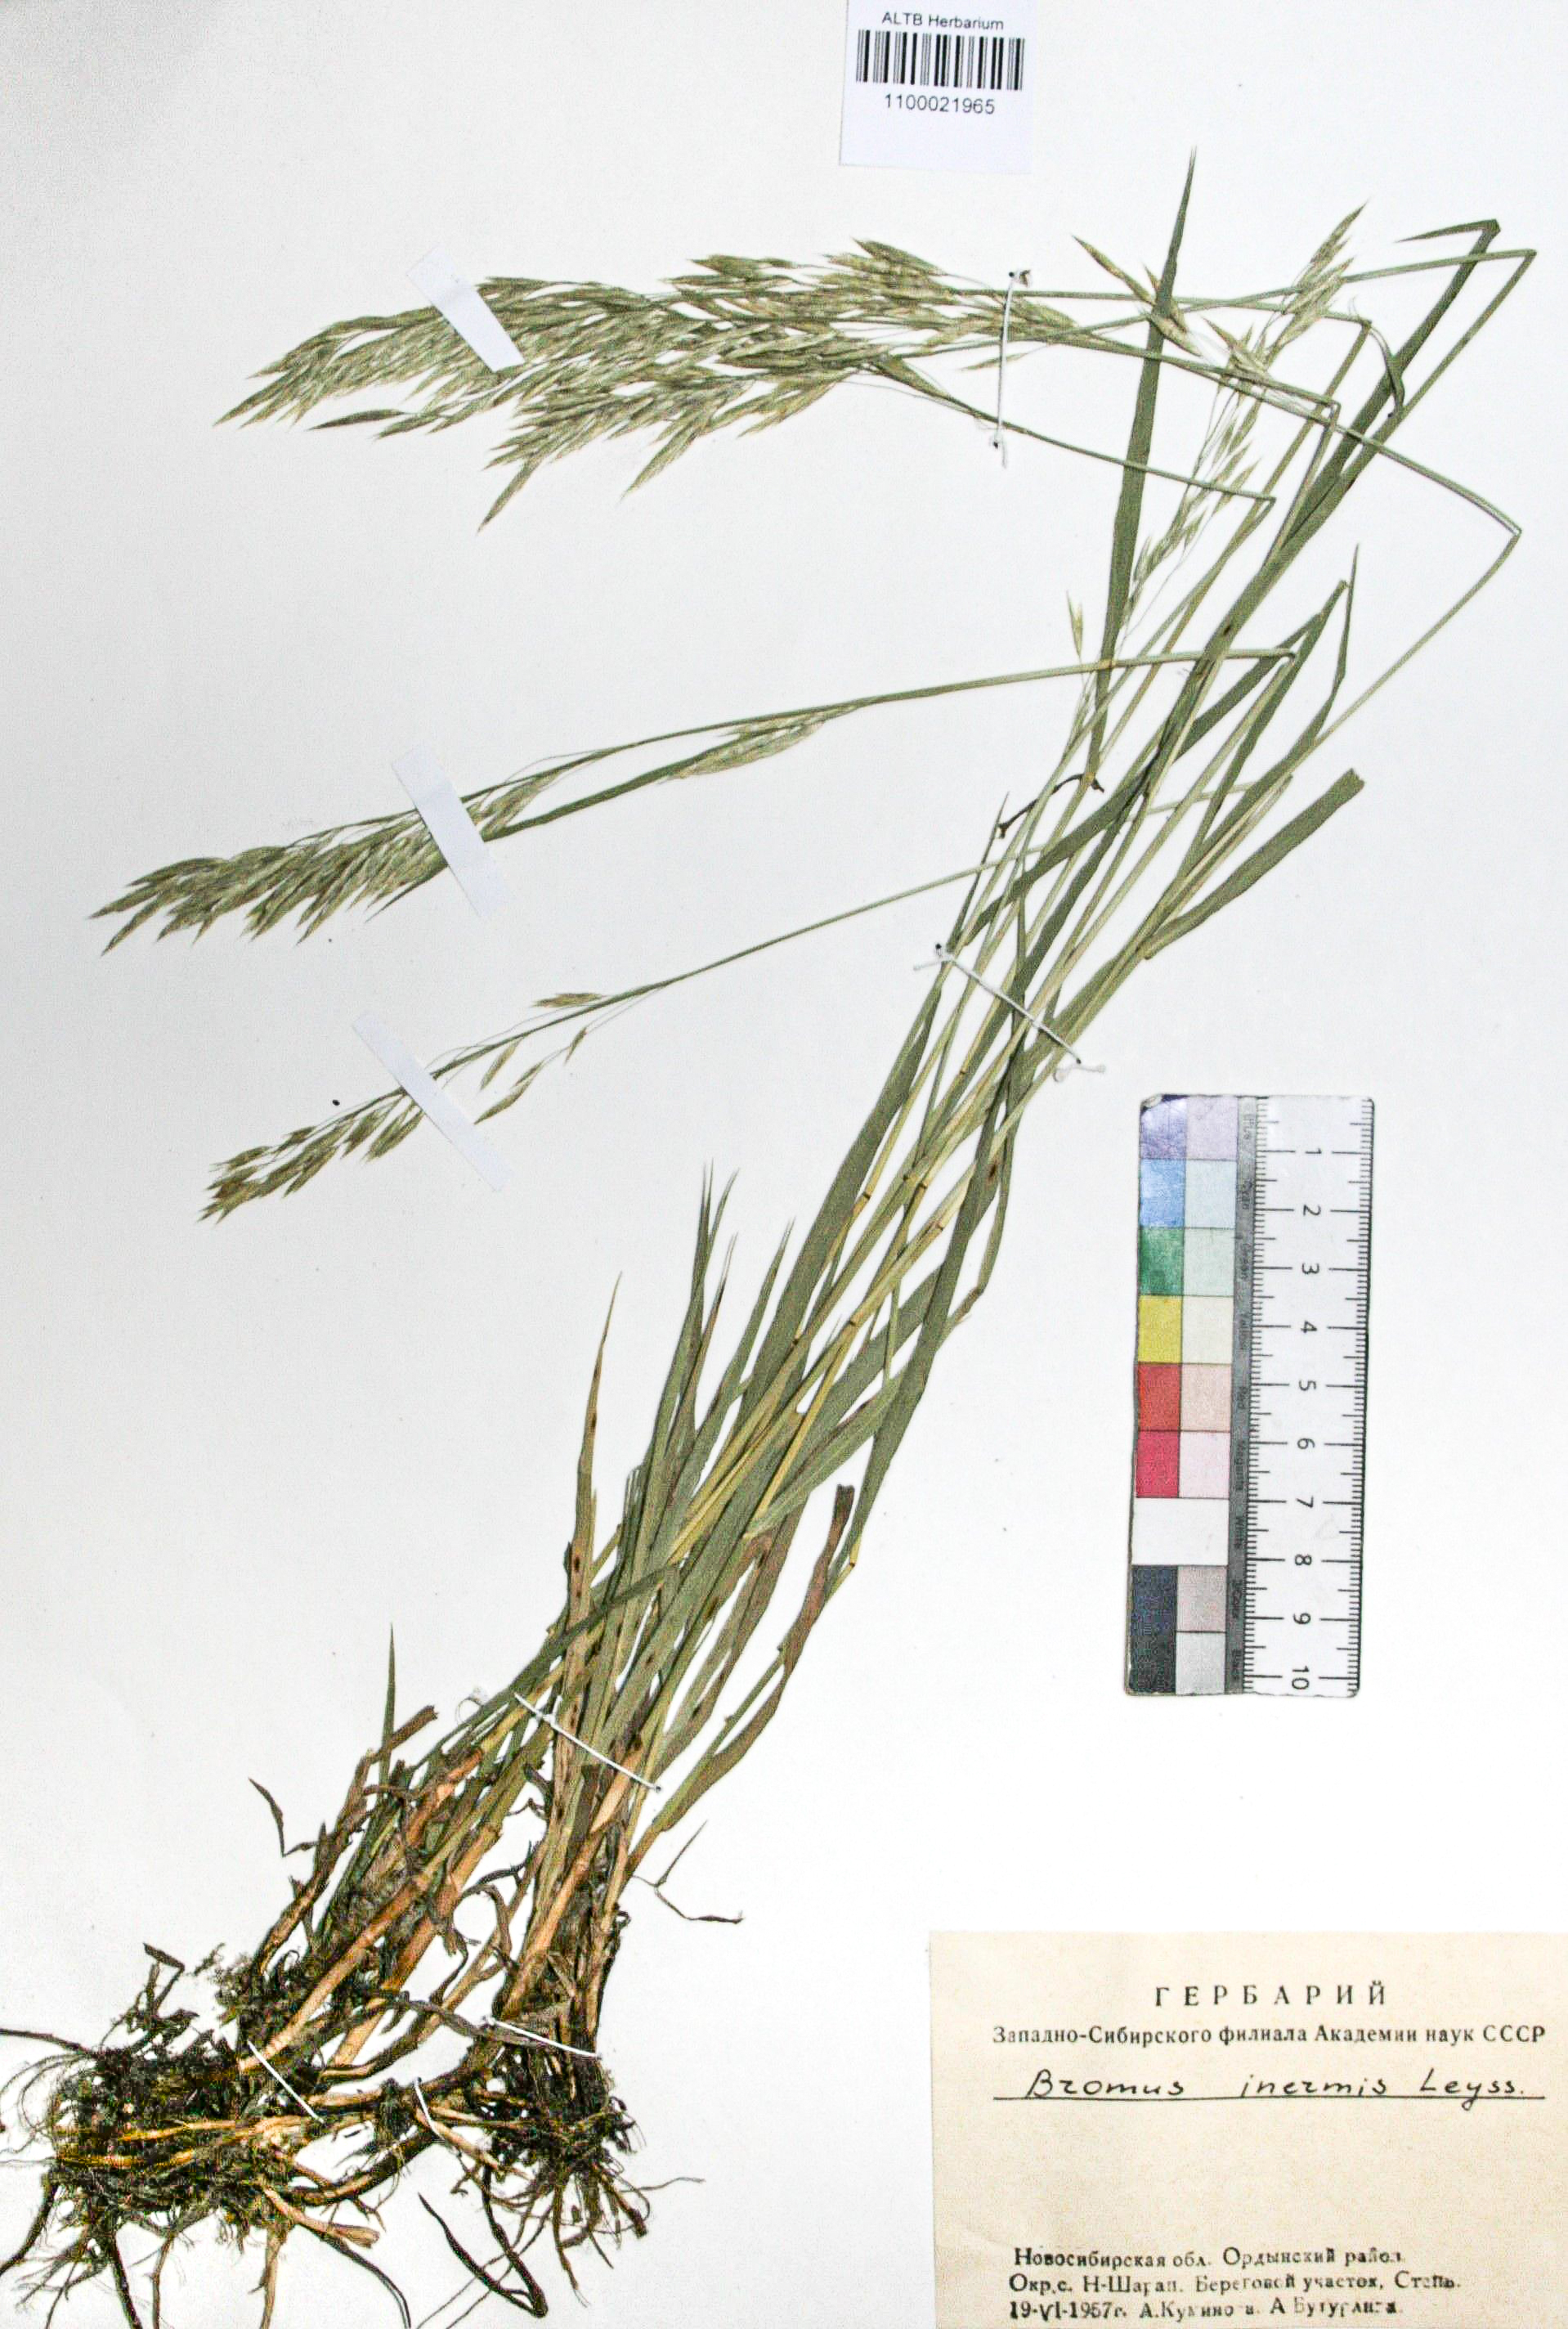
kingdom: Plantae
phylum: Tracheophyta
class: Liliopsida
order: Poales
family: Poaceae
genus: Bromus
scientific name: Bromus inermis
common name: Smooth brome
